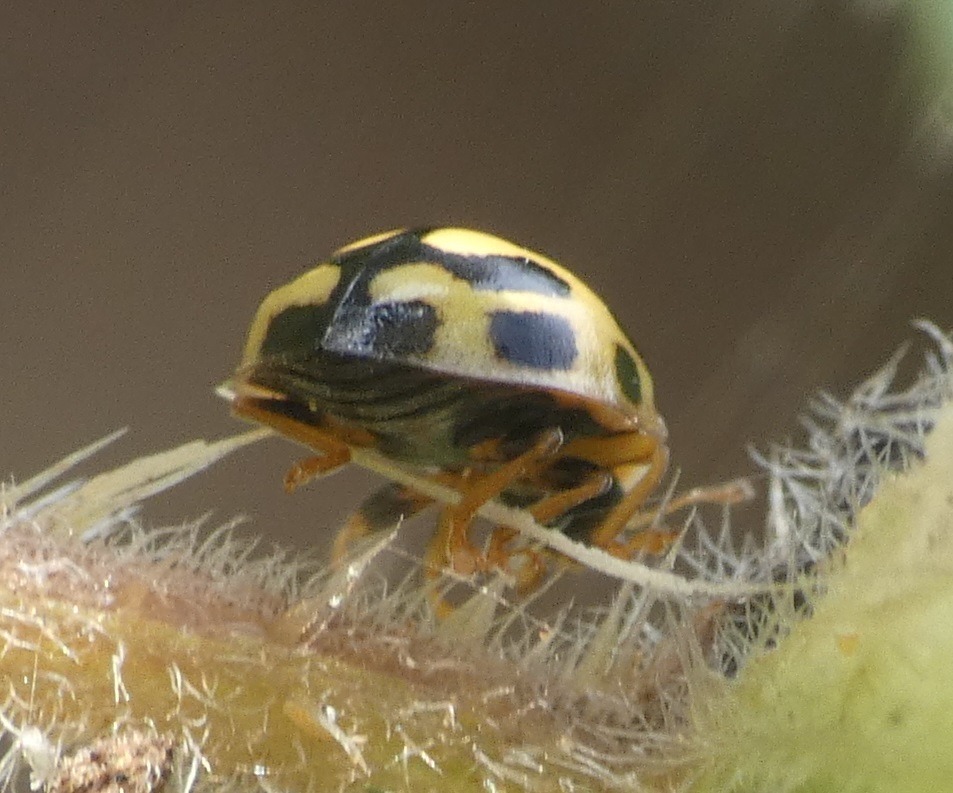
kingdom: Animalia
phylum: Arthropoda
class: Insecta
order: Coleoptera
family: Coccinellidae
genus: Propylaea
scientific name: Propylaea quatuordecimpunctata
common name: Skakbræt
